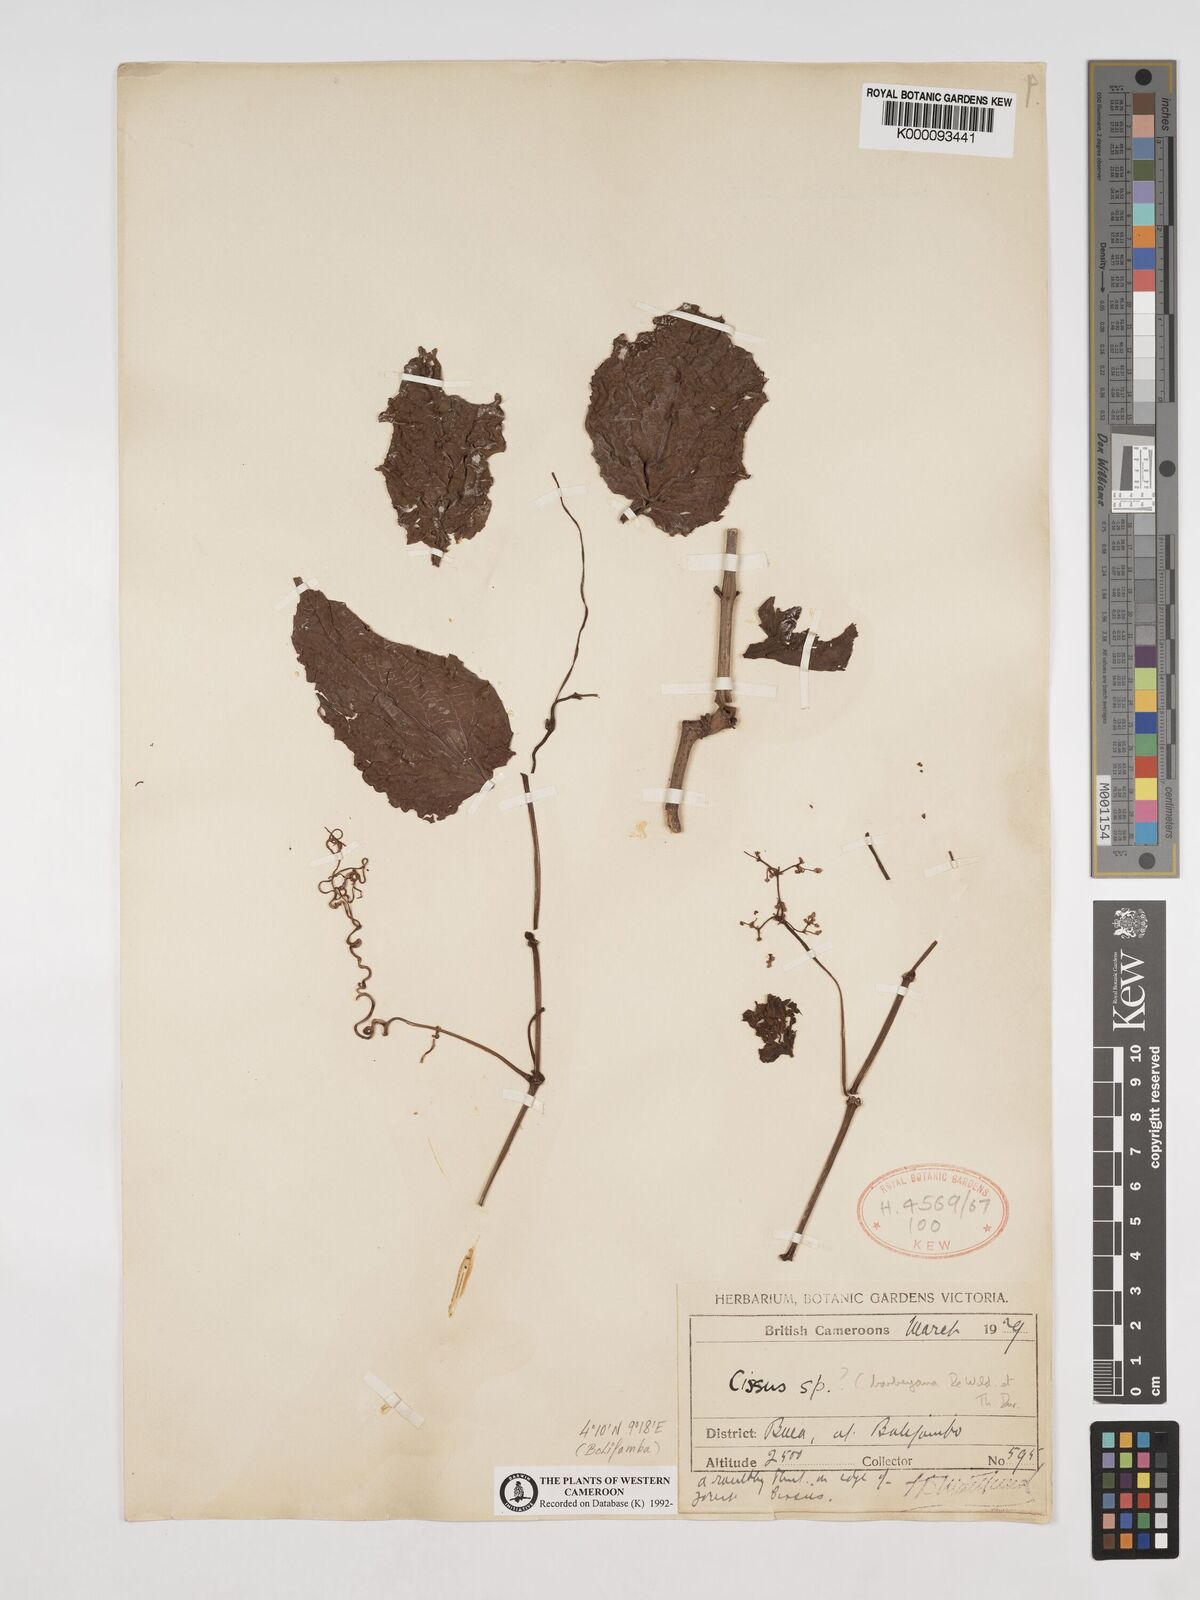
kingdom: Plantae
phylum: Tracheophyta
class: Magnoliopsida
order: Vitales
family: Vitaceae
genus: Cissus
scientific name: Cissus barbeyana
